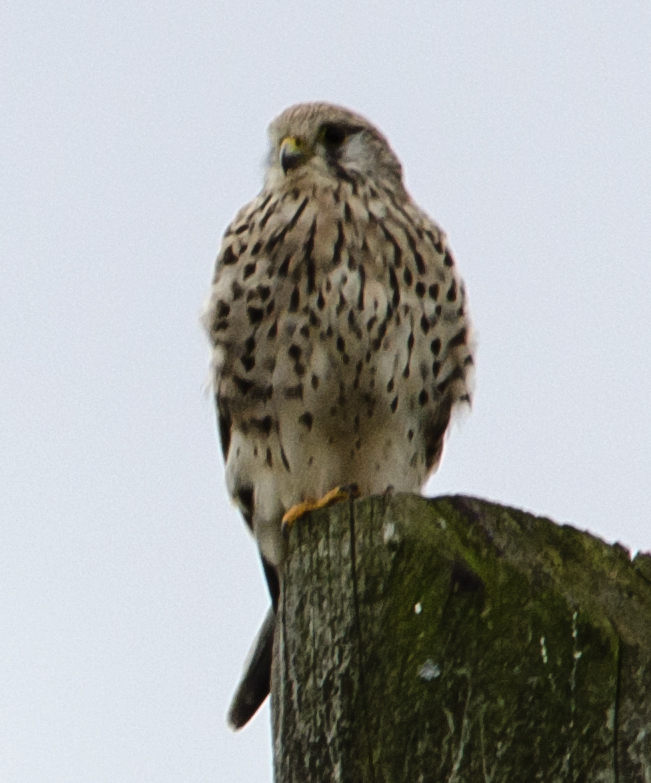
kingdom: Animalia
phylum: Chordata
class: Aves
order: Falconiformes
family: Falconidae
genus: Falco
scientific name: Falco tinnunculus
